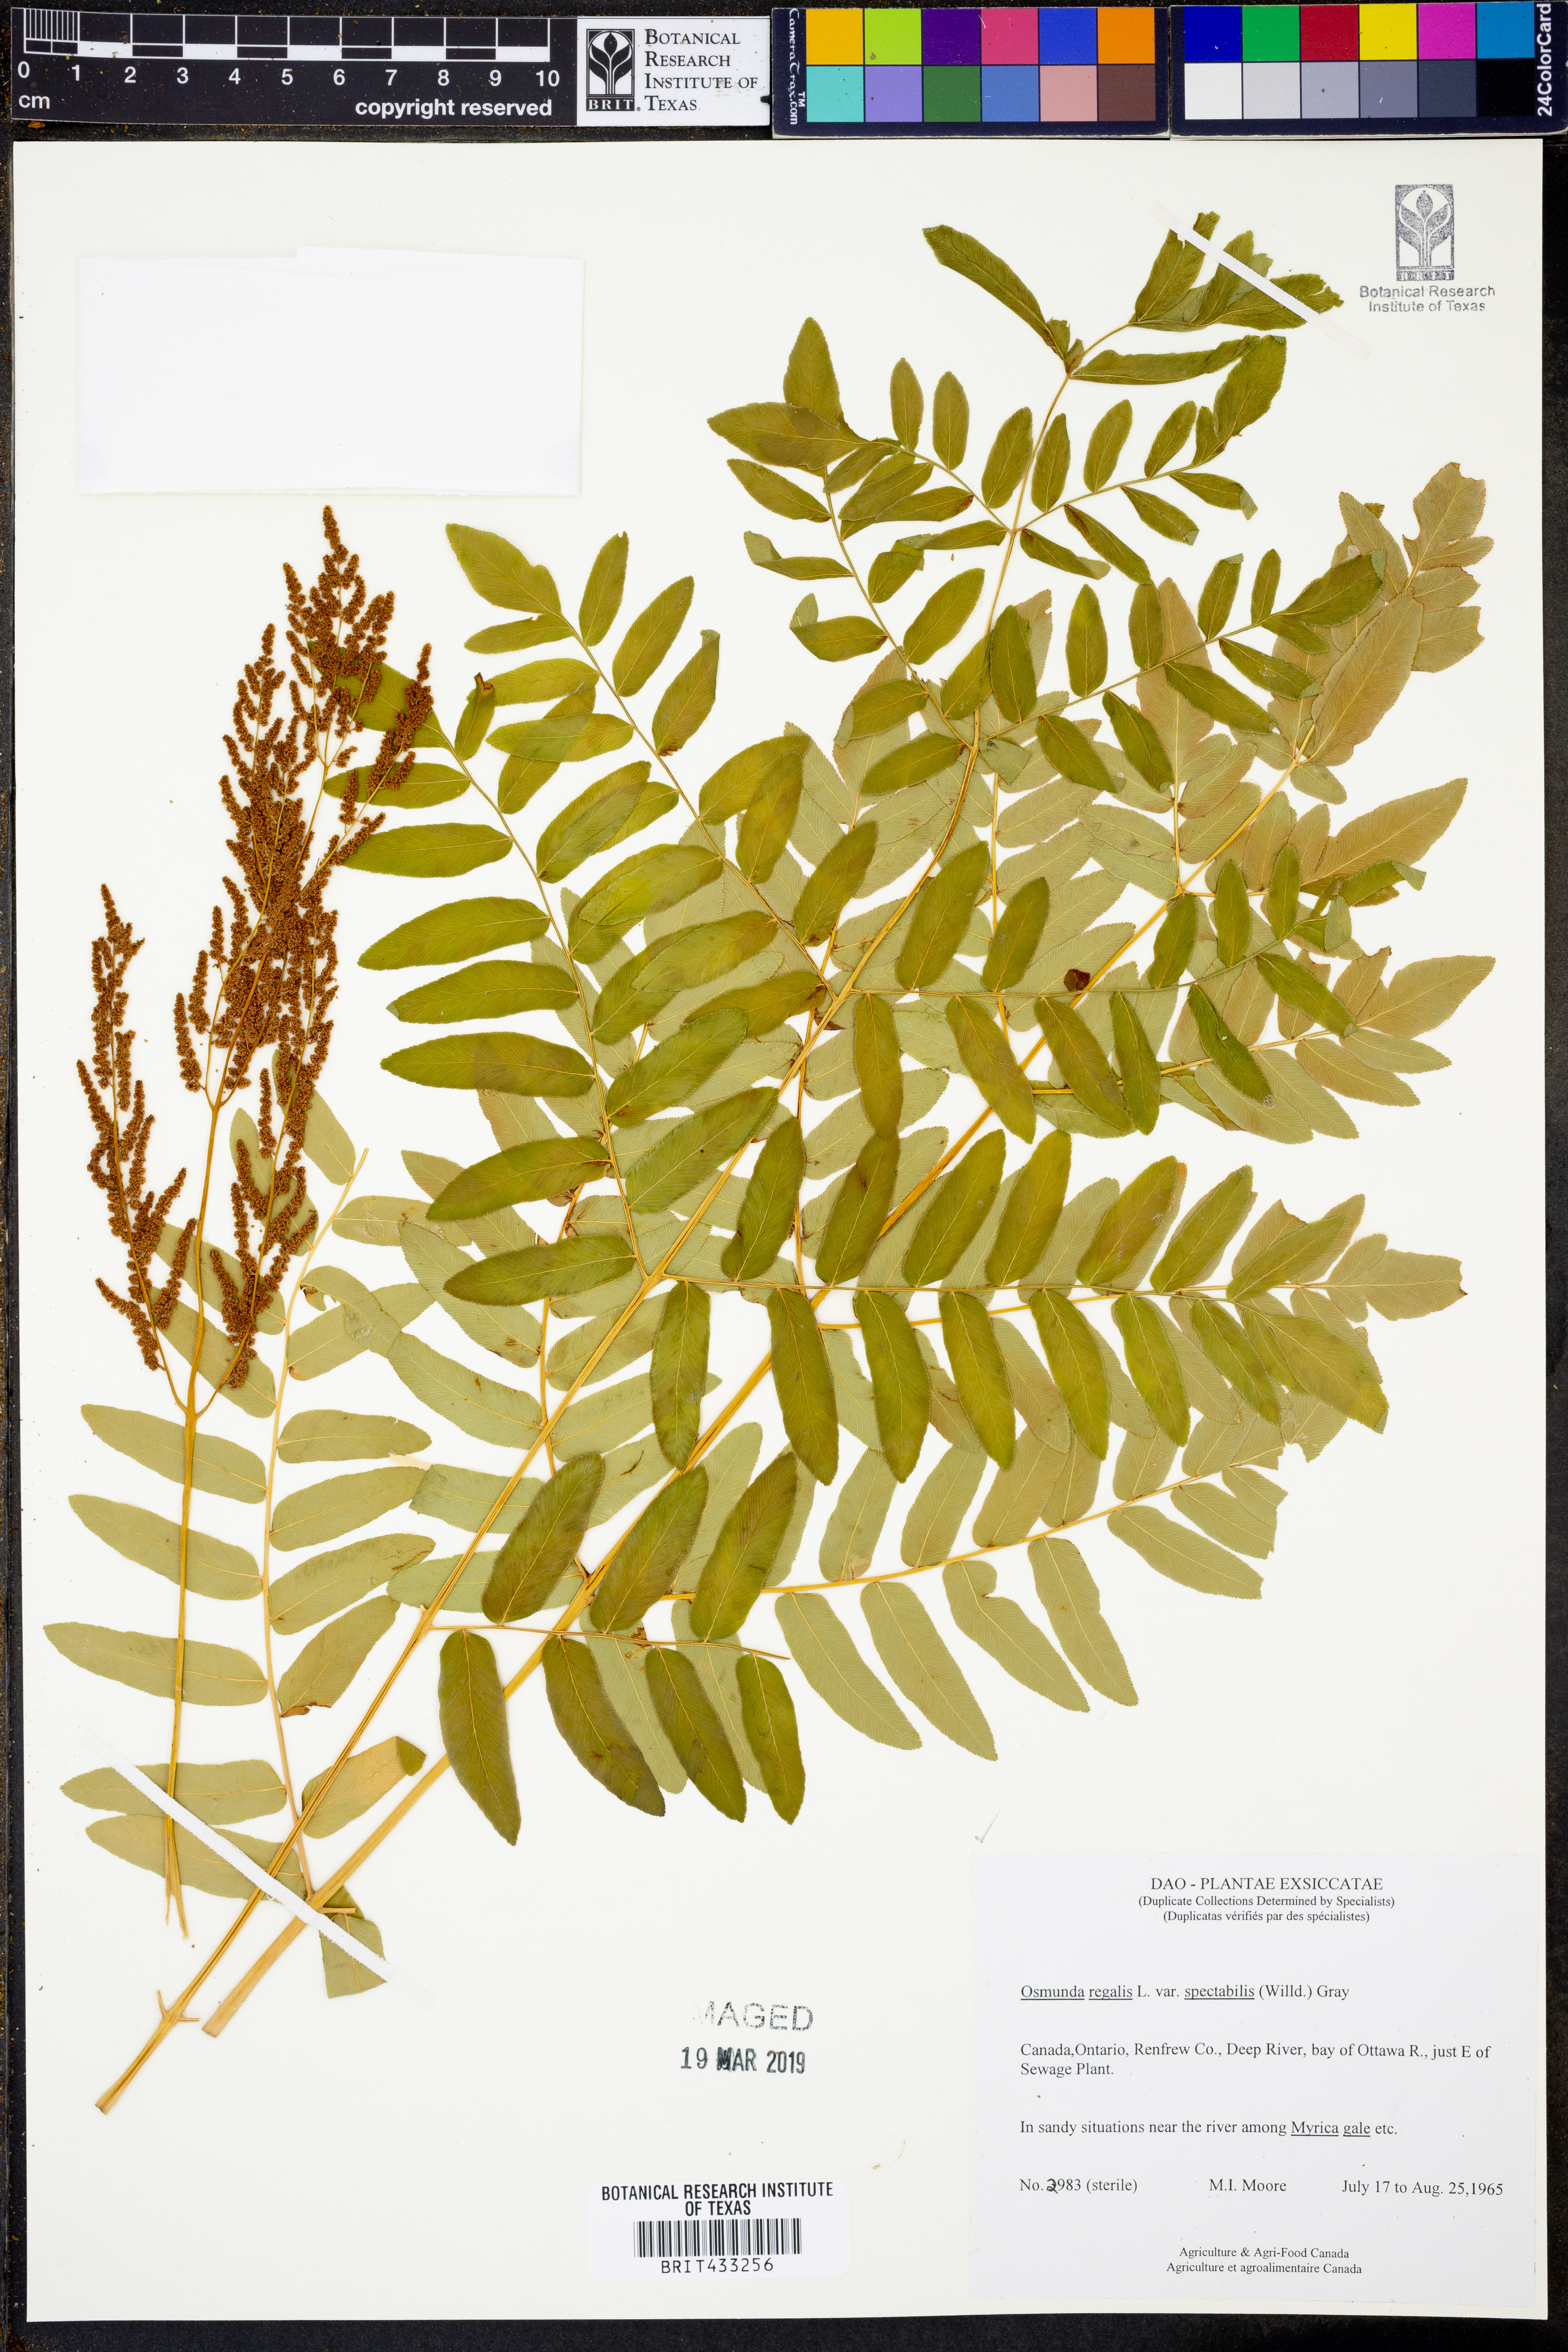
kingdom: Plantae
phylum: Tracheophyta
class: Polypodiopsida
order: Osmundales
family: Osmundaceae
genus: Osmunda
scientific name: Osmunda spectabilis
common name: American royal fern
